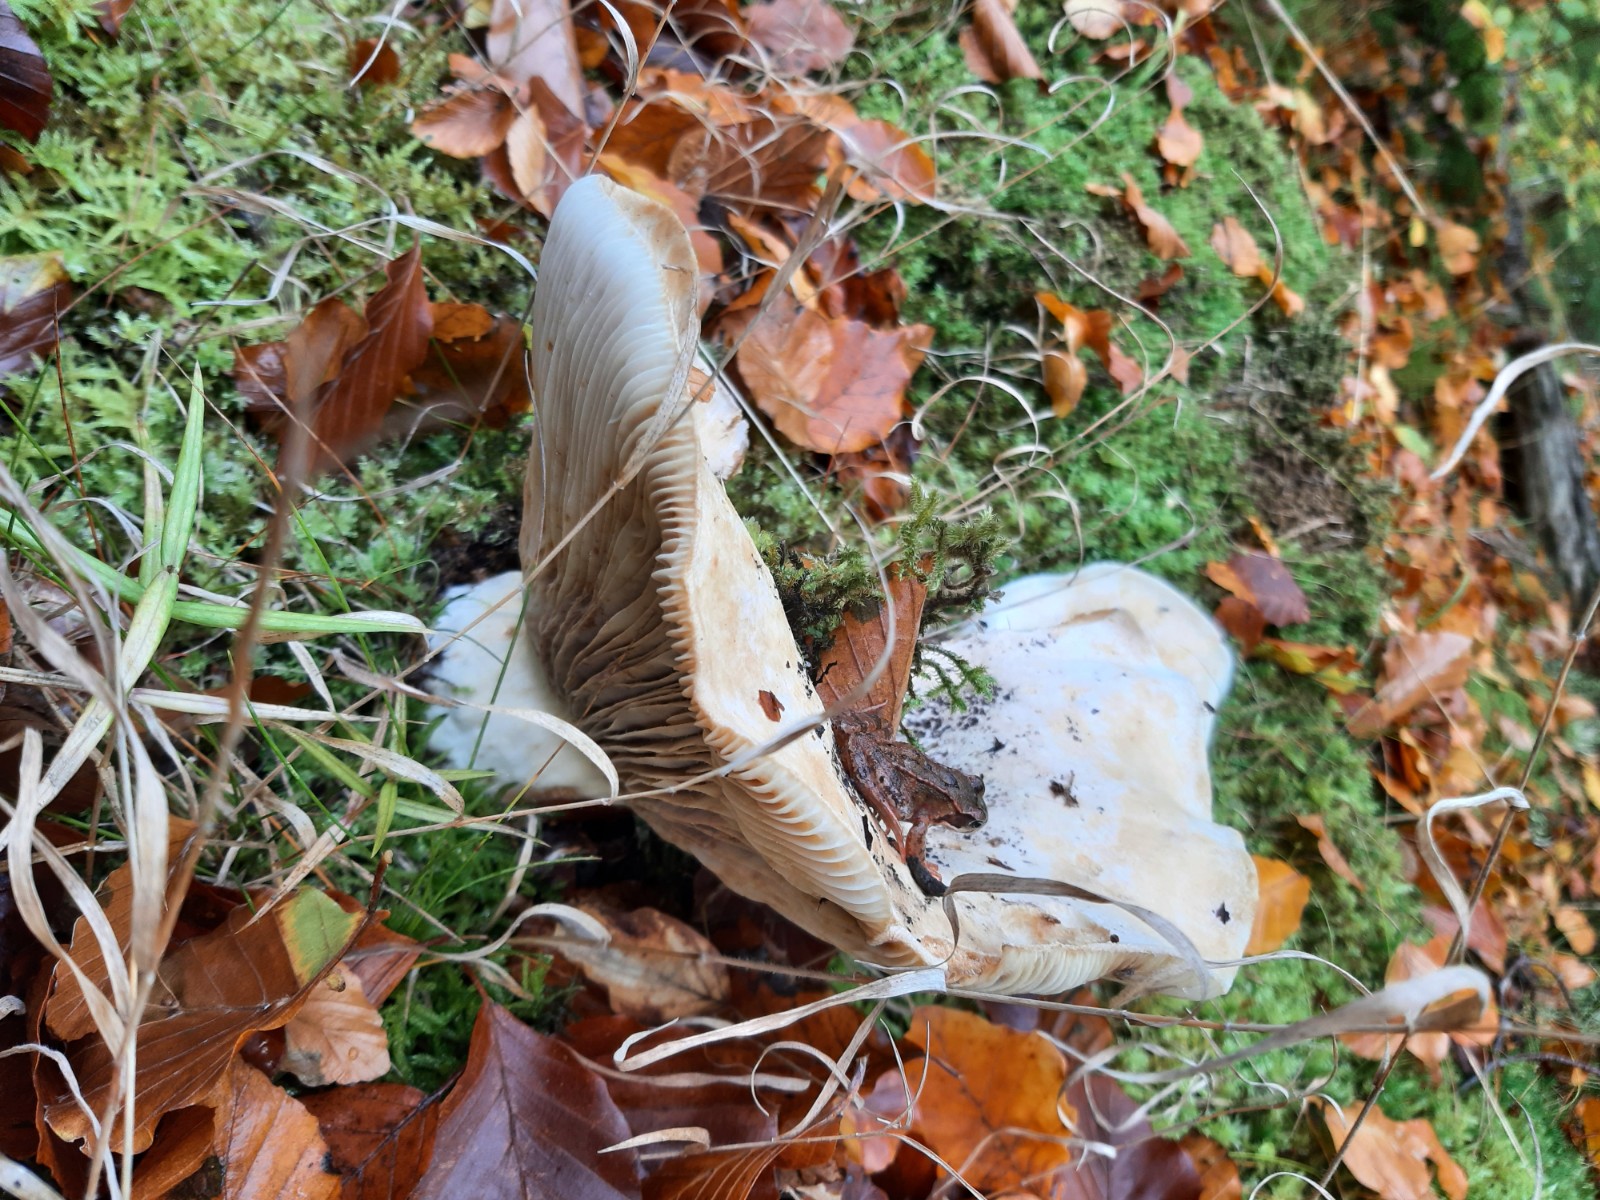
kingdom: Fungi
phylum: Basidiomycota
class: Agaricomycetes
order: Agaricales
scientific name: Agaricales
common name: champignonordenen
